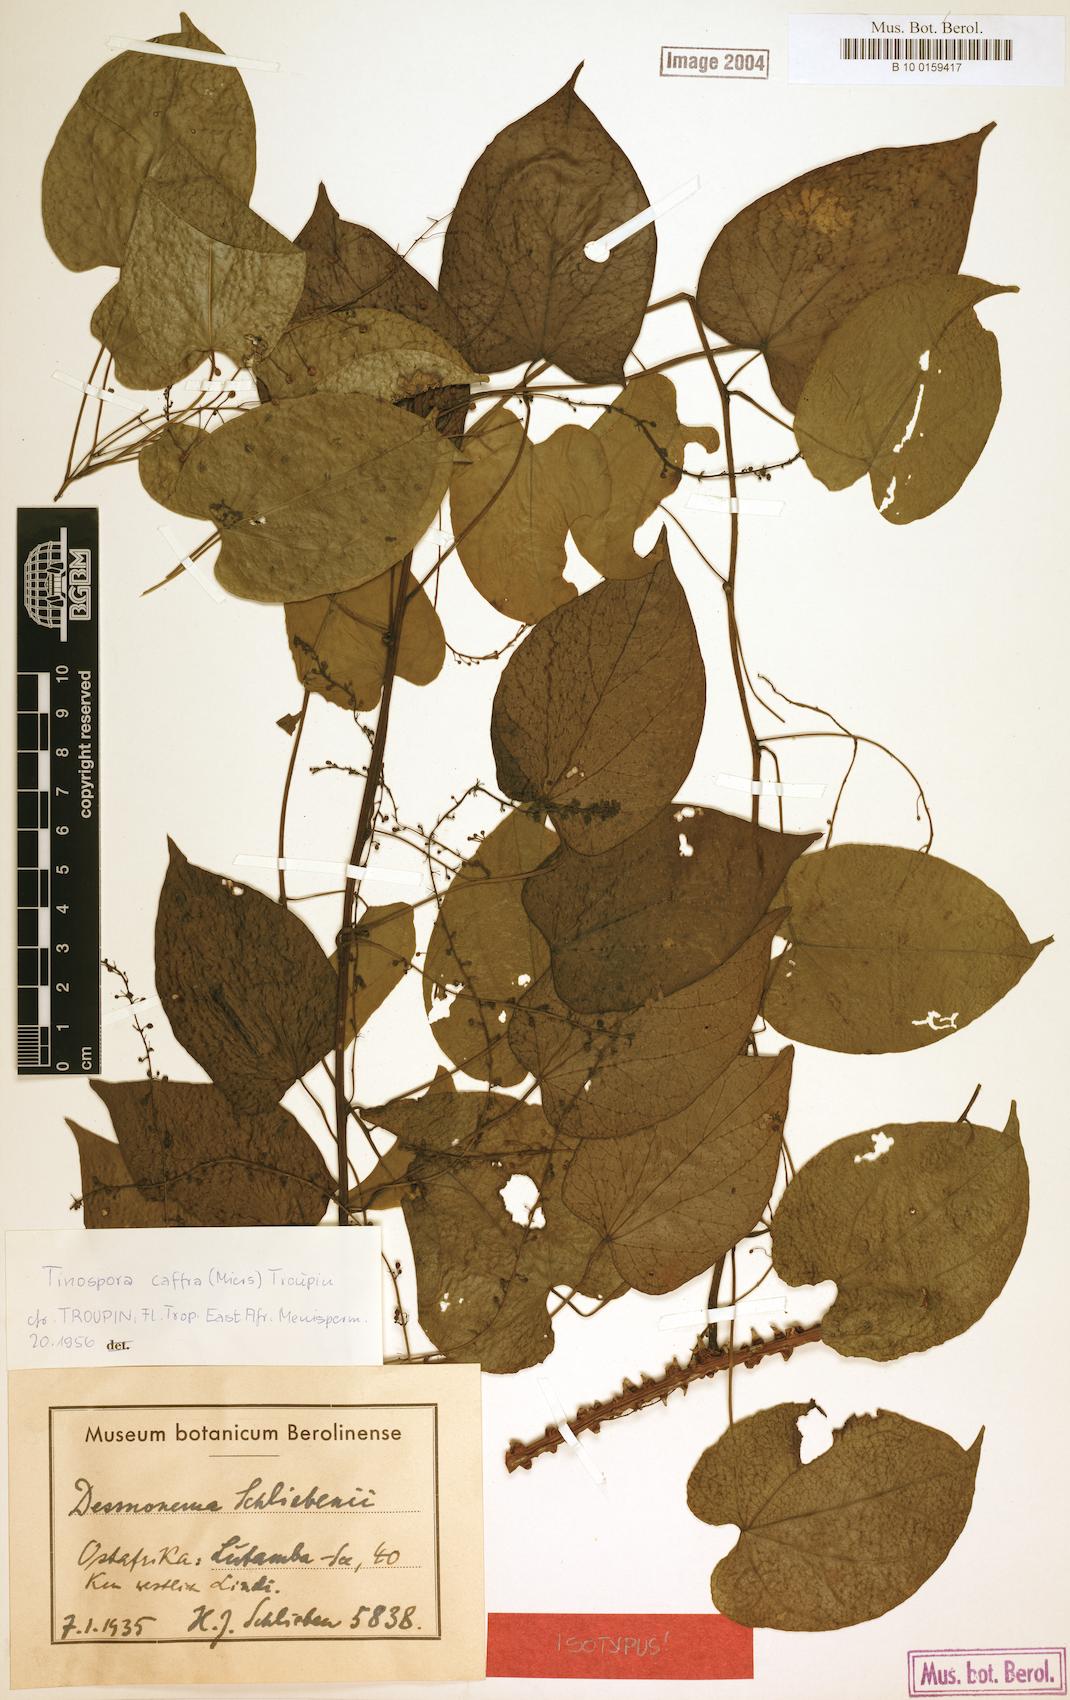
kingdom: Plantae
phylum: Tracheophyta
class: Magnoliopsida
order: Ranunculales
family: Menispermaceae
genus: Tinospora
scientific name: Tinospora caffra
